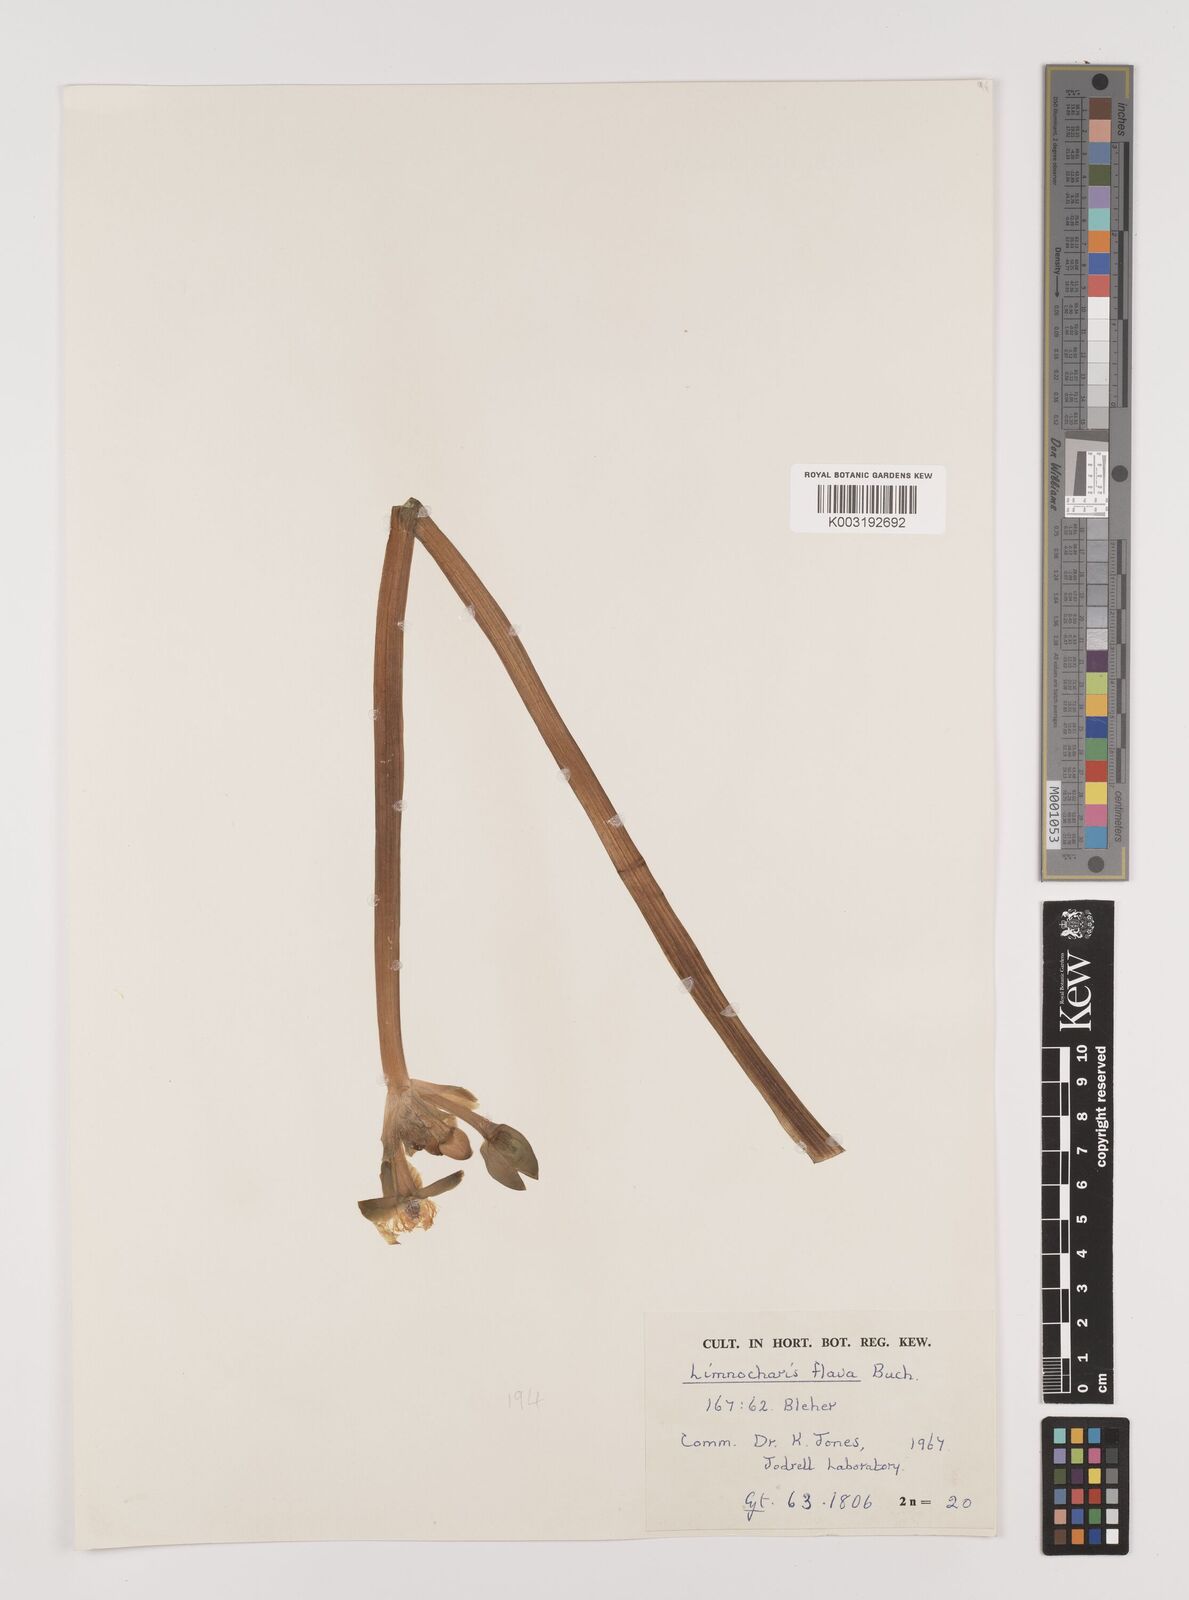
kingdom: Plantae
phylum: Tracheophyta
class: Liliopsida
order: Alismatales
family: Alismataceae
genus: Limnocharis
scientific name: Limnocharis flava
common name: Sawah-flower-rush
